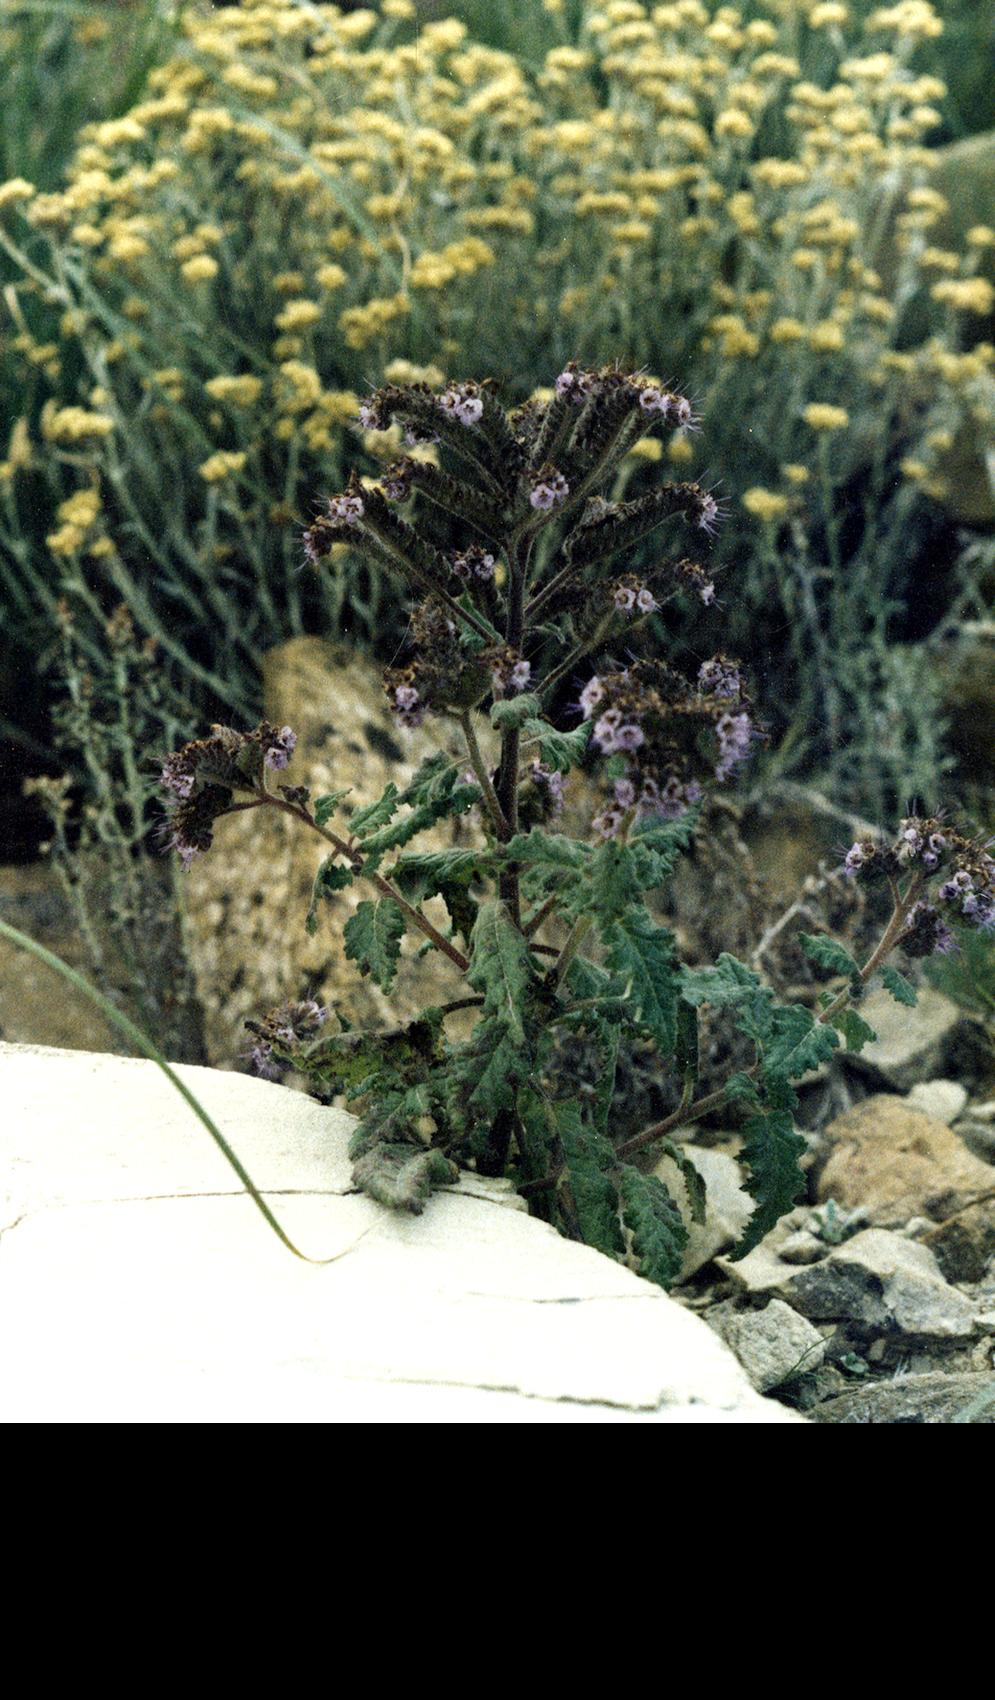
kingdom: Plantae
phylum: Tracheophyta
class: Magnoliopsida
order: Boraginales
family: Hydrophyllaceae
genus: Phacelia
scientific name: Phacelia pinnatifida
